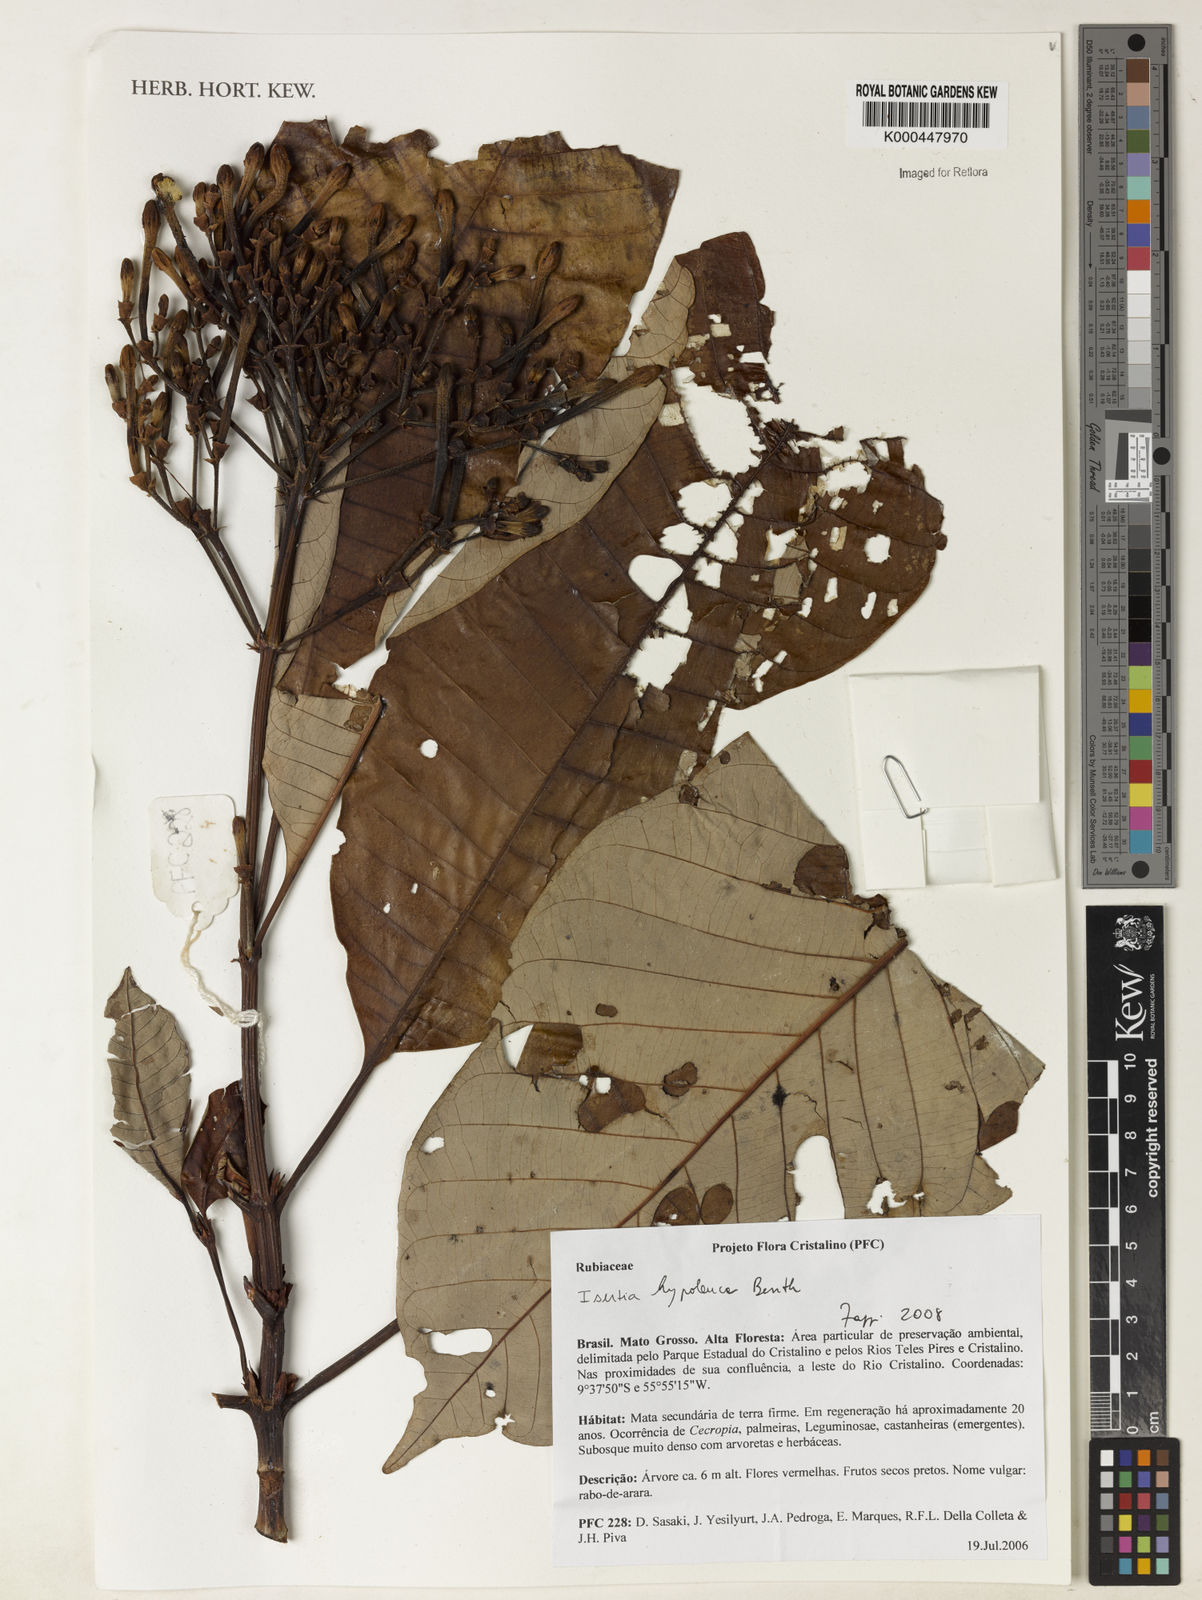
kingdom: Plantae
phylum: Tracheophyta
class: Magnoliopsida
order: Gentianales
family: Rubiaceae
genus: Isertia
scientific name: Isertia hypoleuca
